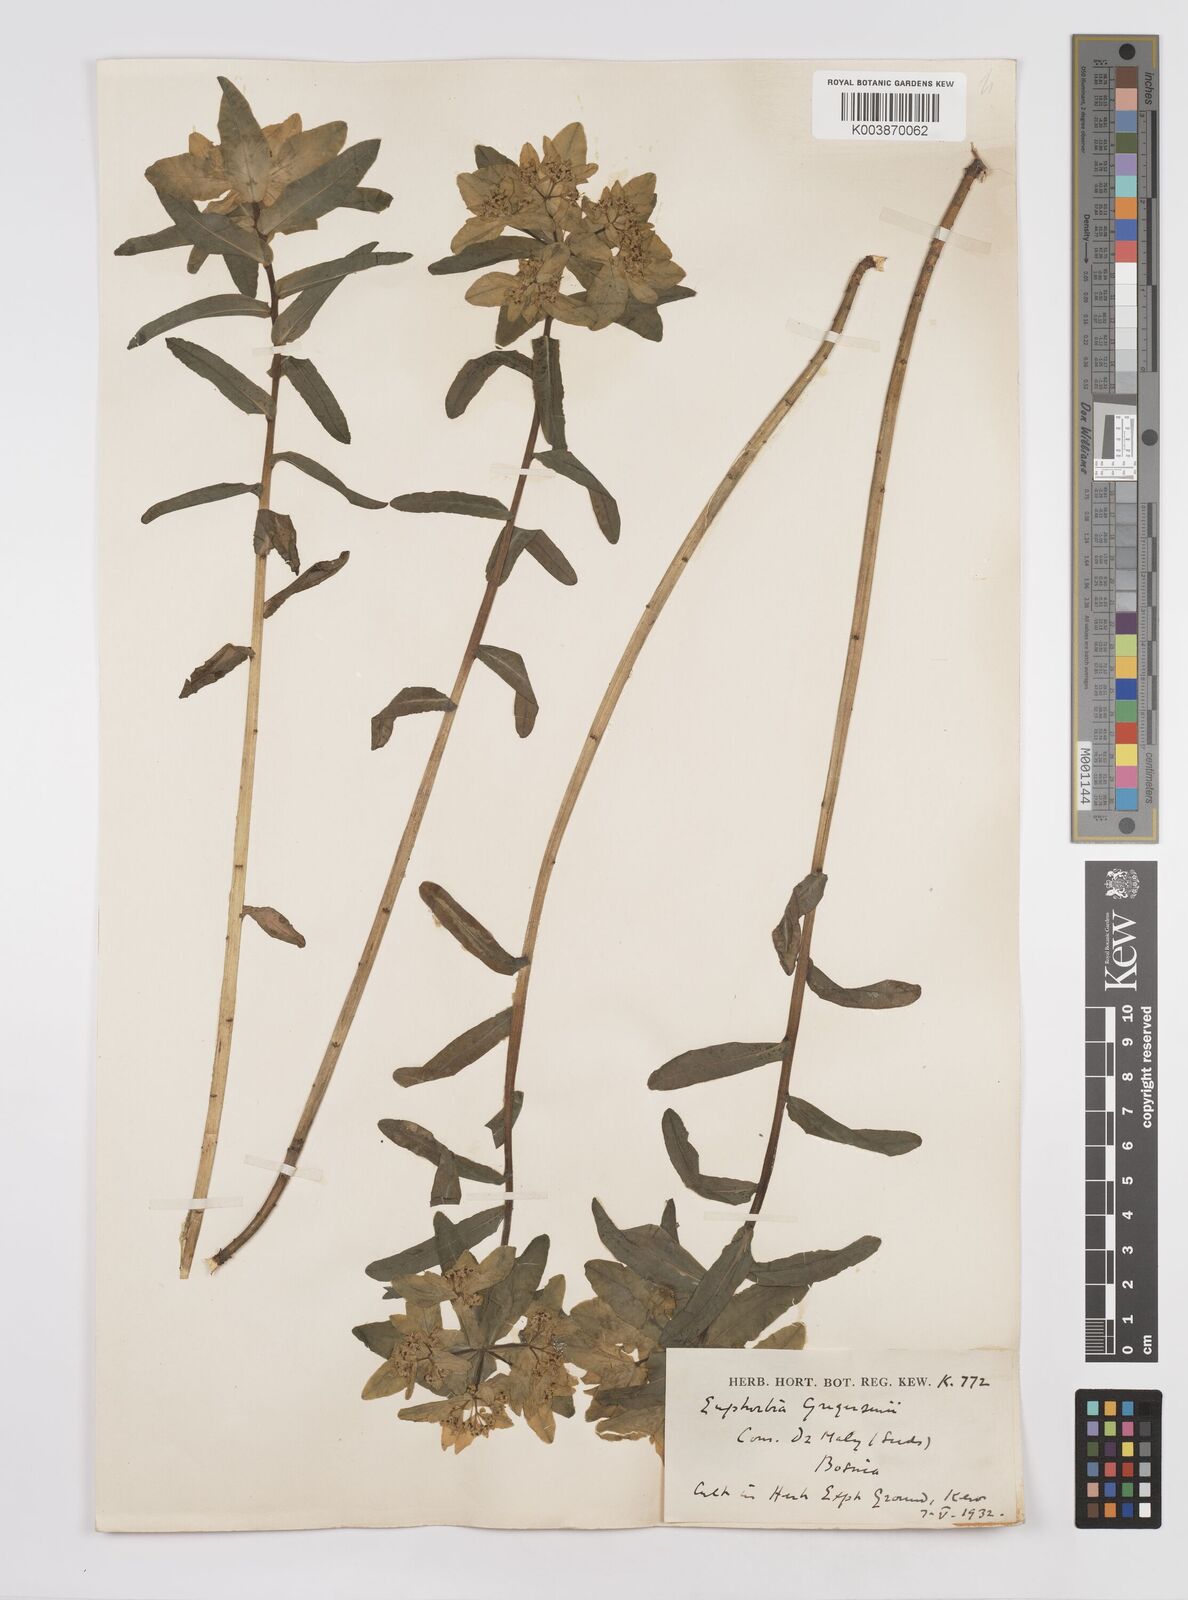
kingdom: Plantae
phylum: Tracheophyta
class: Magnoliopsida
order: Malpighiales
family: Euphorbiaceae
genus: Euphorbia
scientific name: Euphorbia gregersenii
